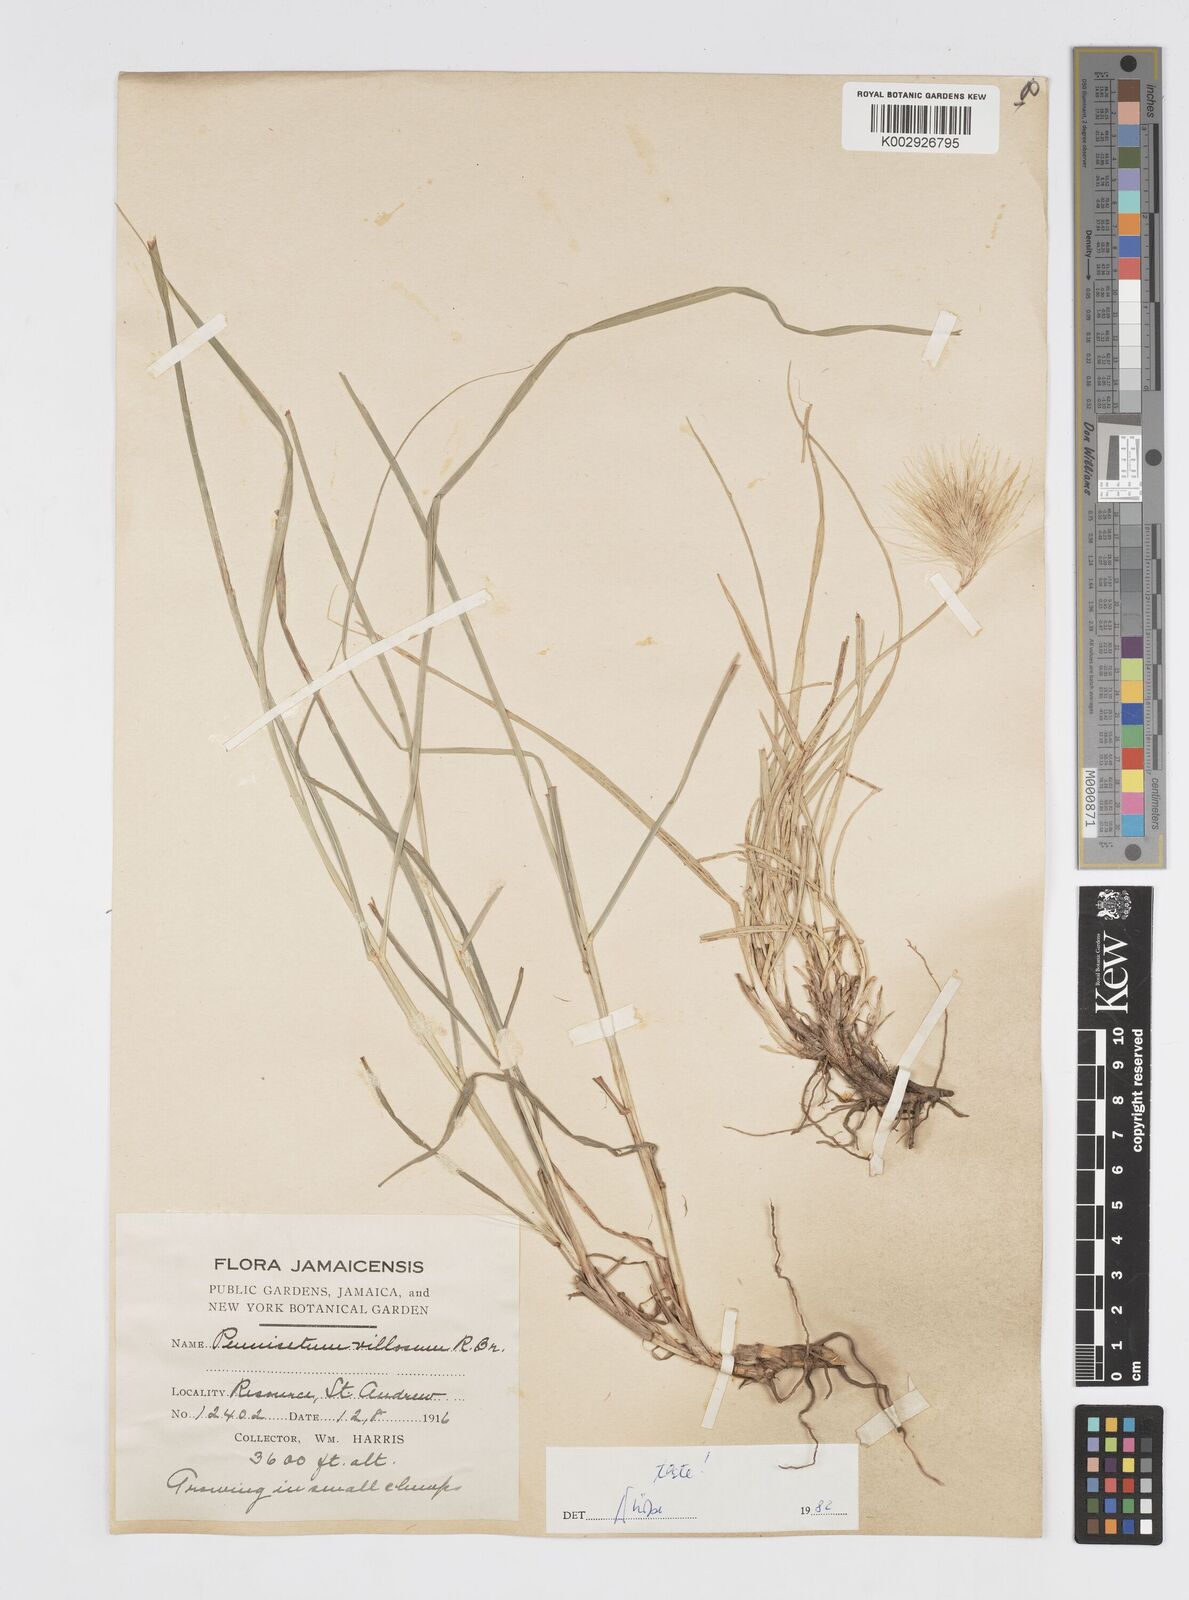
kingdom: Plantae
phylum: Tracheophyta
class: Liliopsida
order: Poales
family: Poaceae
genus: Cenchrus
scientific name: Cenchrus Pennisetum spec
